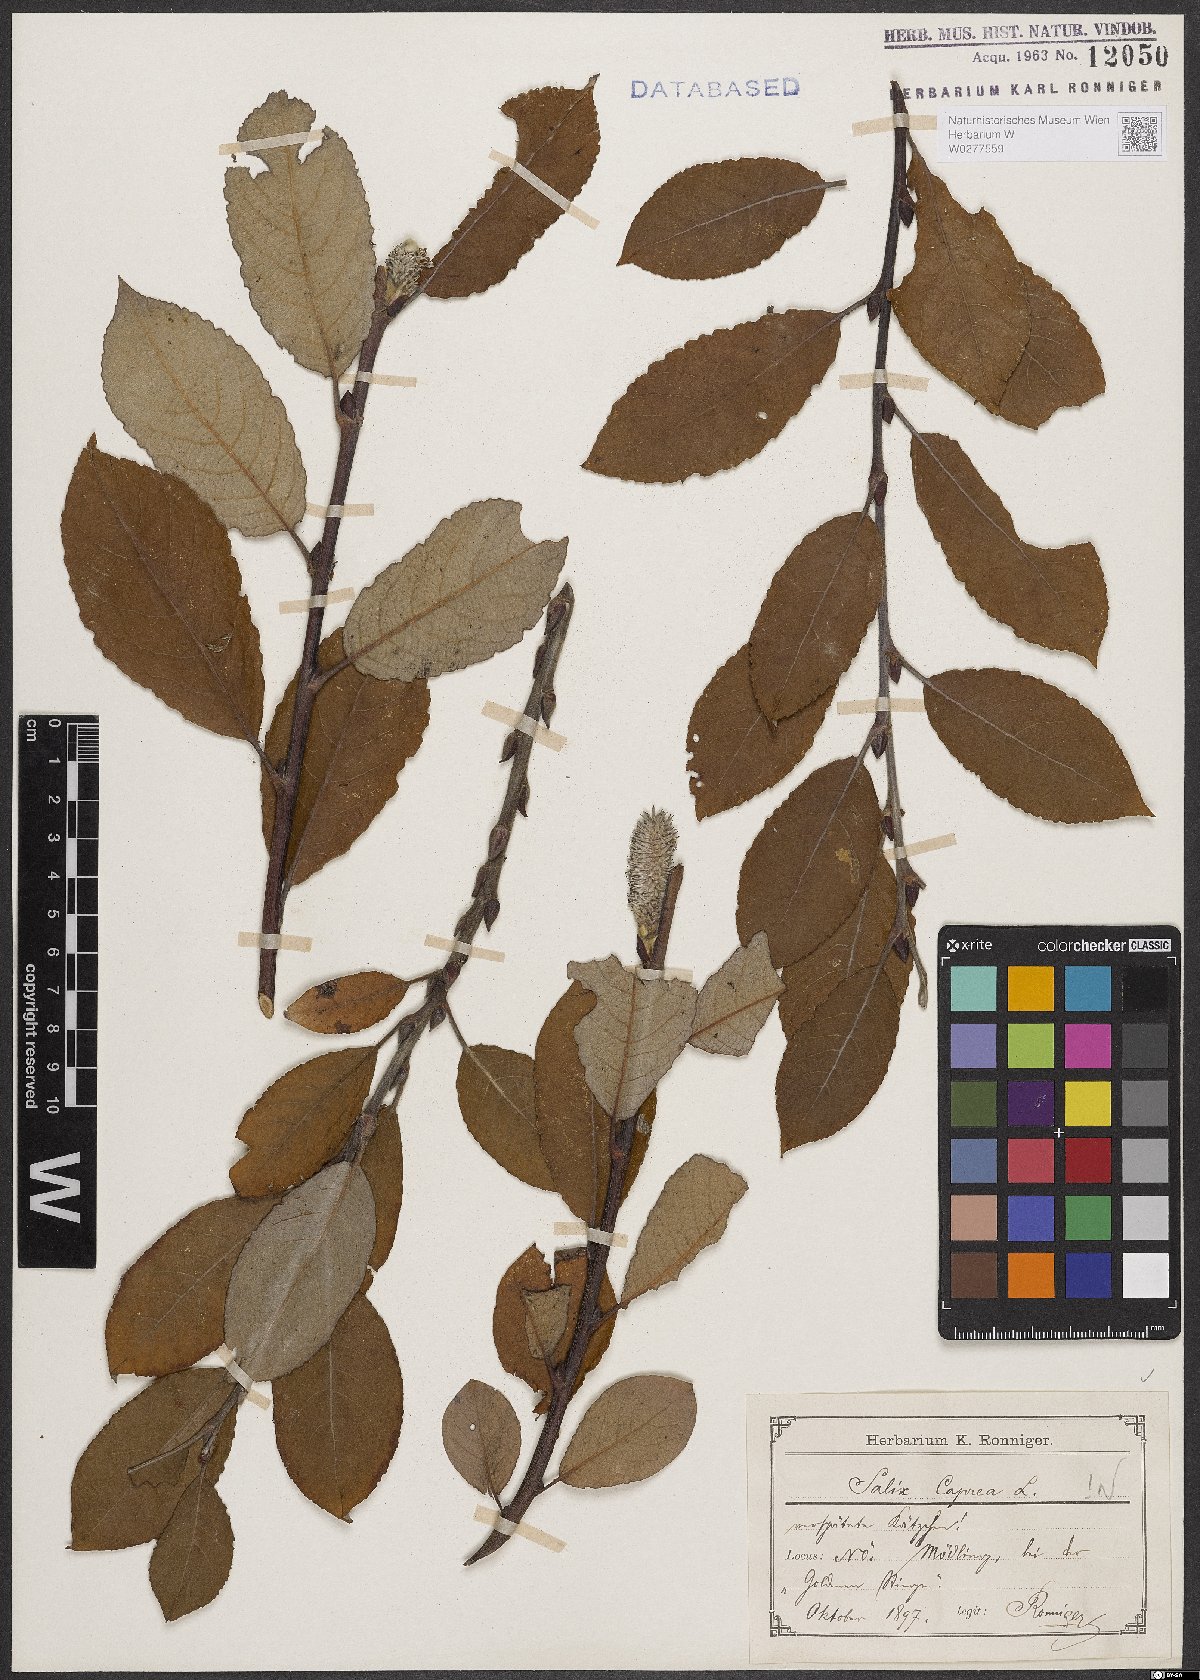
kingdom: Plantae
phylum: Tracheophyta
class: Magnoliopsida
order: Malpighiales
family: Salicaceae
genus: Salix
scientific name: Salix caprea
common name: Goat willow
